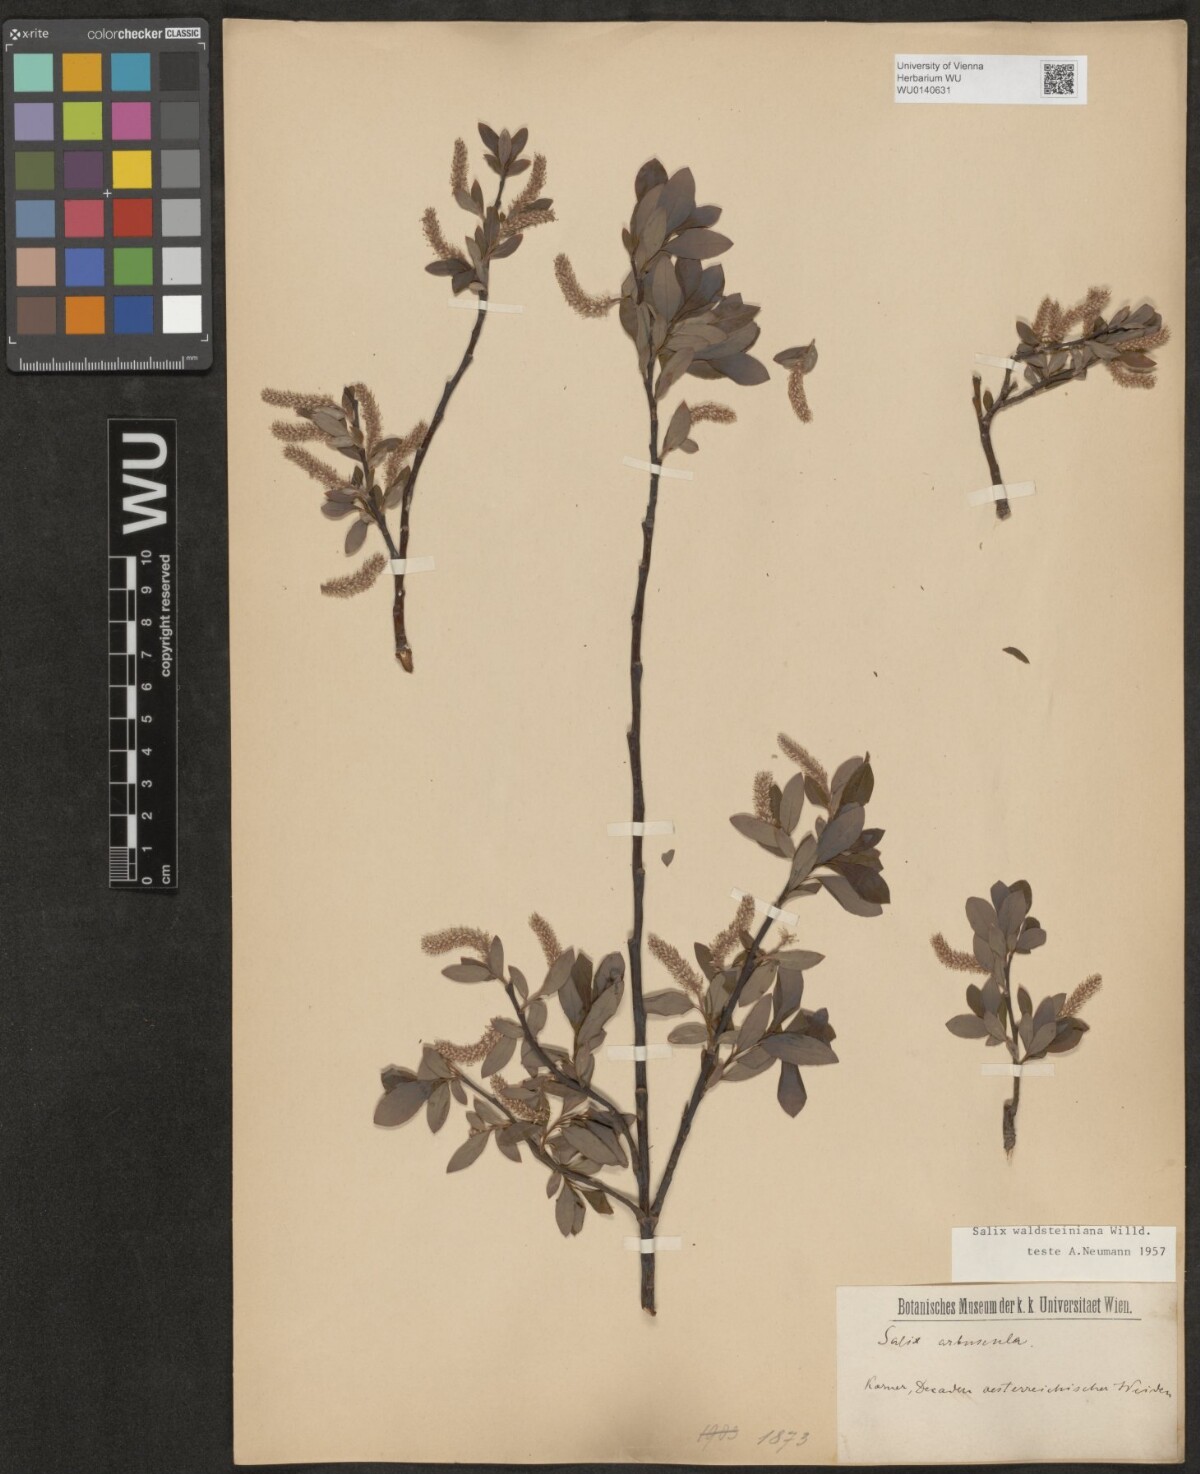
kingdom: Plantae
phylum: Tracheophyta
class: Magnoliopsida
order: Malpighiales
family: Salicaceae
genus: Salix
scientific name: Salix waldsteiniana
